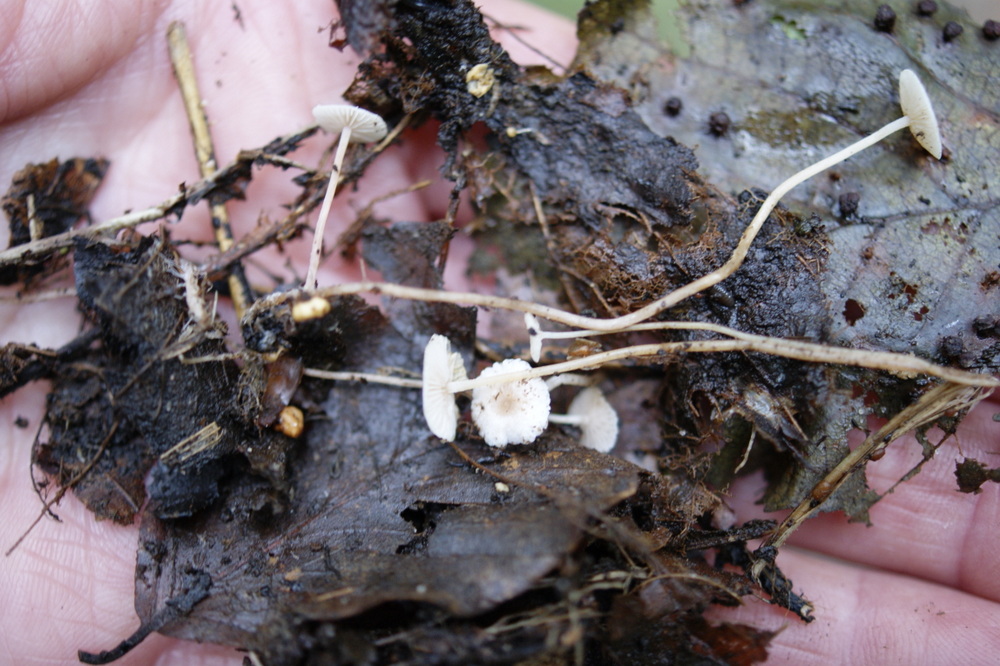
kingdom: Fungi
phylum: Basidiomycota
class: Agaricomycetes
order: Agaricales
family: Tricholomataceae
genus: Collybia
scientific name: Collybia cookei
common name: gulknoldet lighat
